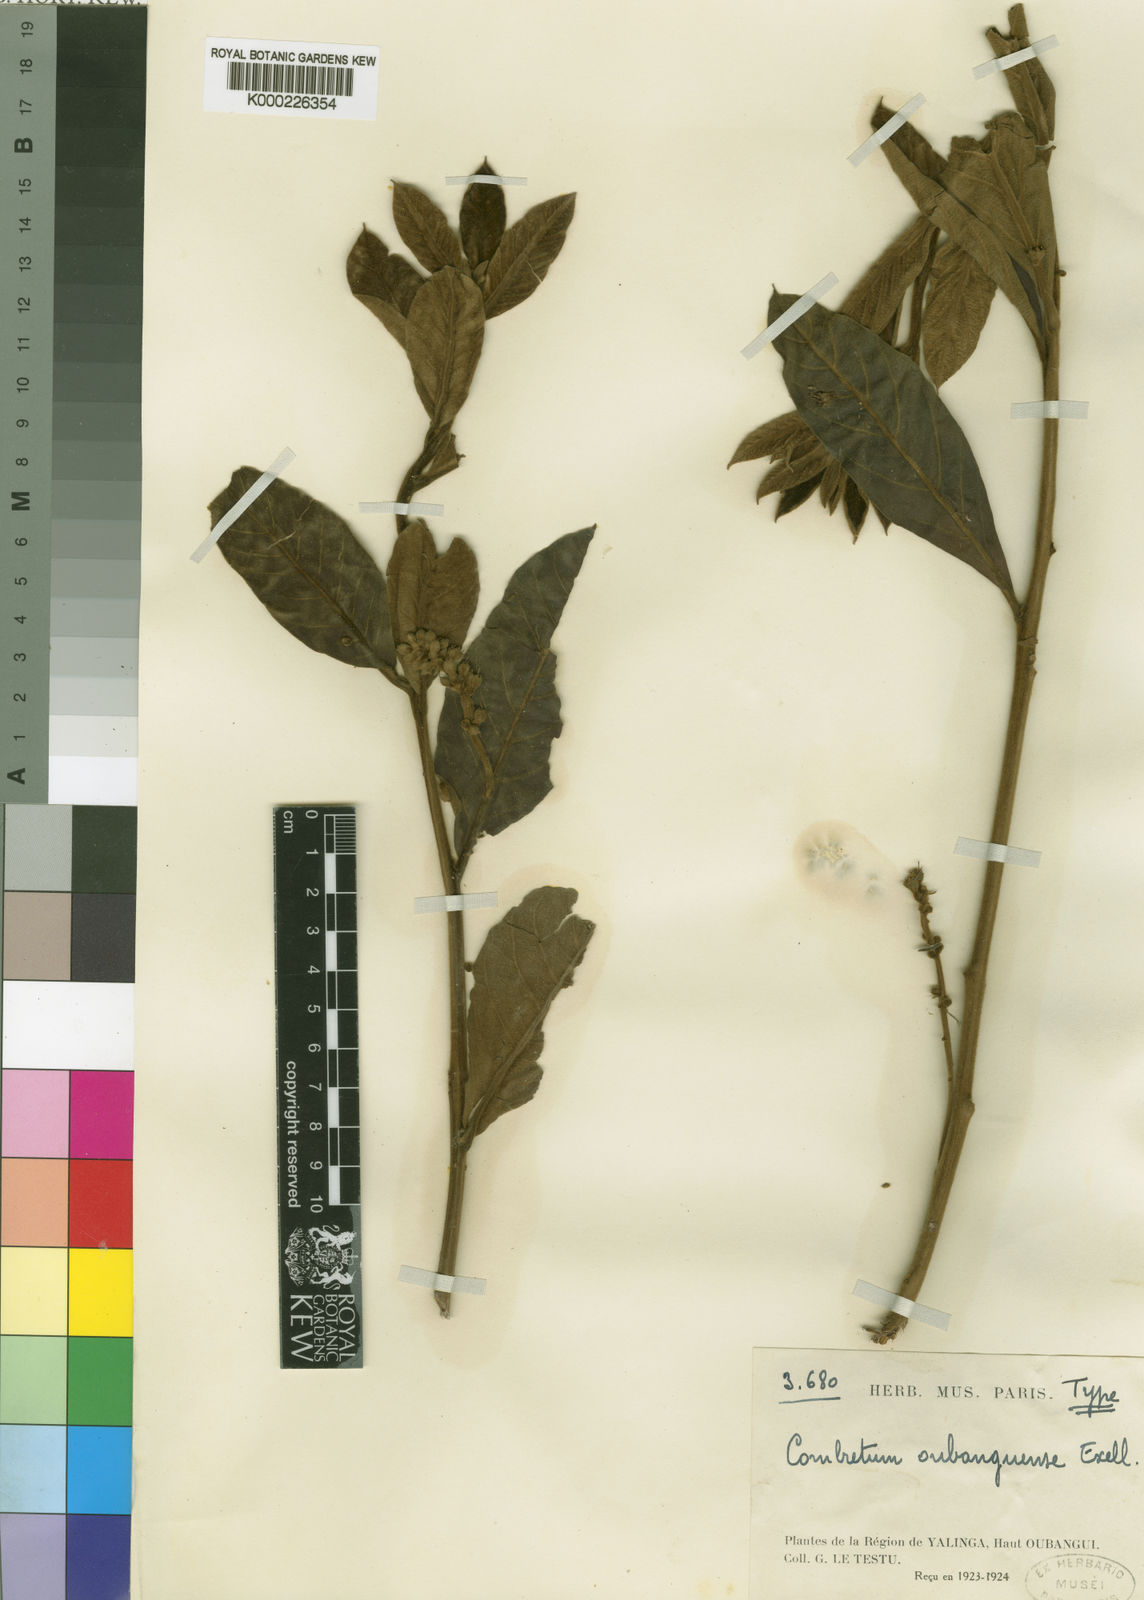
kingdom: Plantae
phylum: Tracheophyta
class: Magnoliopsida
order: Myrtales
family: Combretaceae
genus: Combretum
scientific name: Combretum glutinosum
